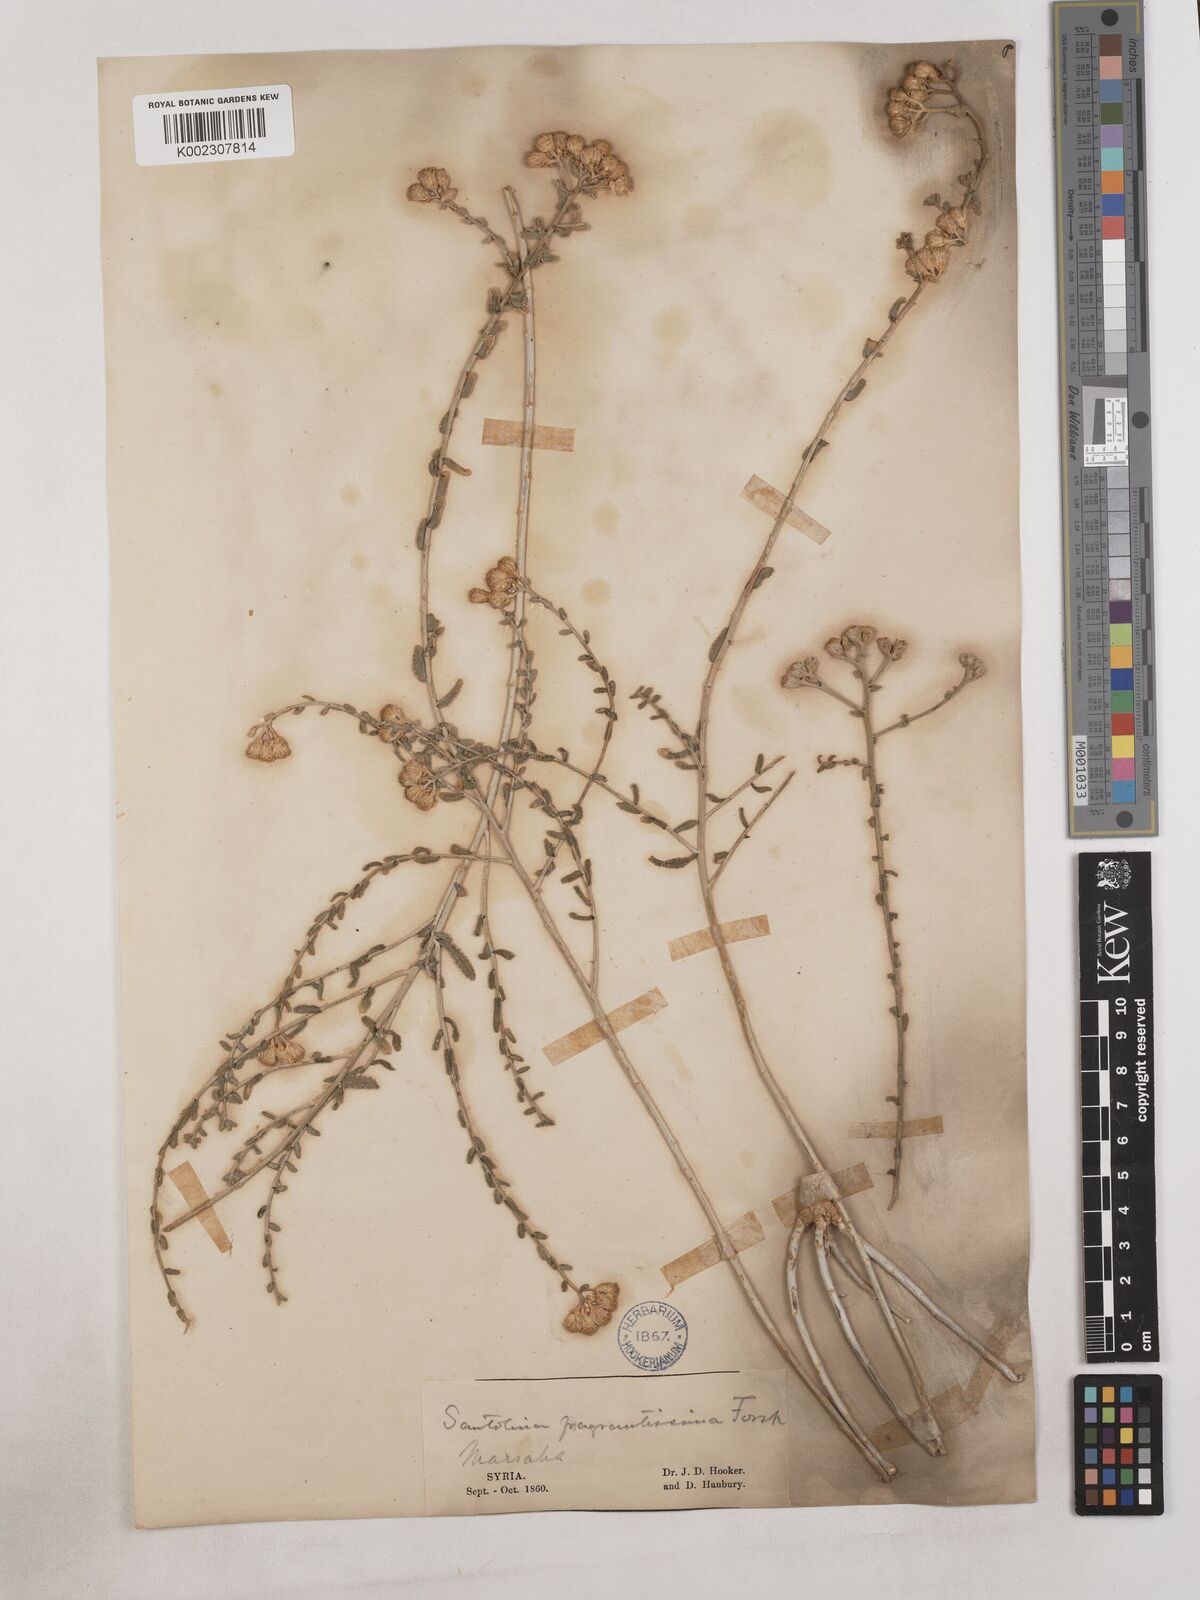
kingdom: Plantae
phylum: Tracheophyta
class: Magnoliopsida
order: Asterales
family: Asteraceae
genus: Achillea
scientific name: Achillea fragrantissima
